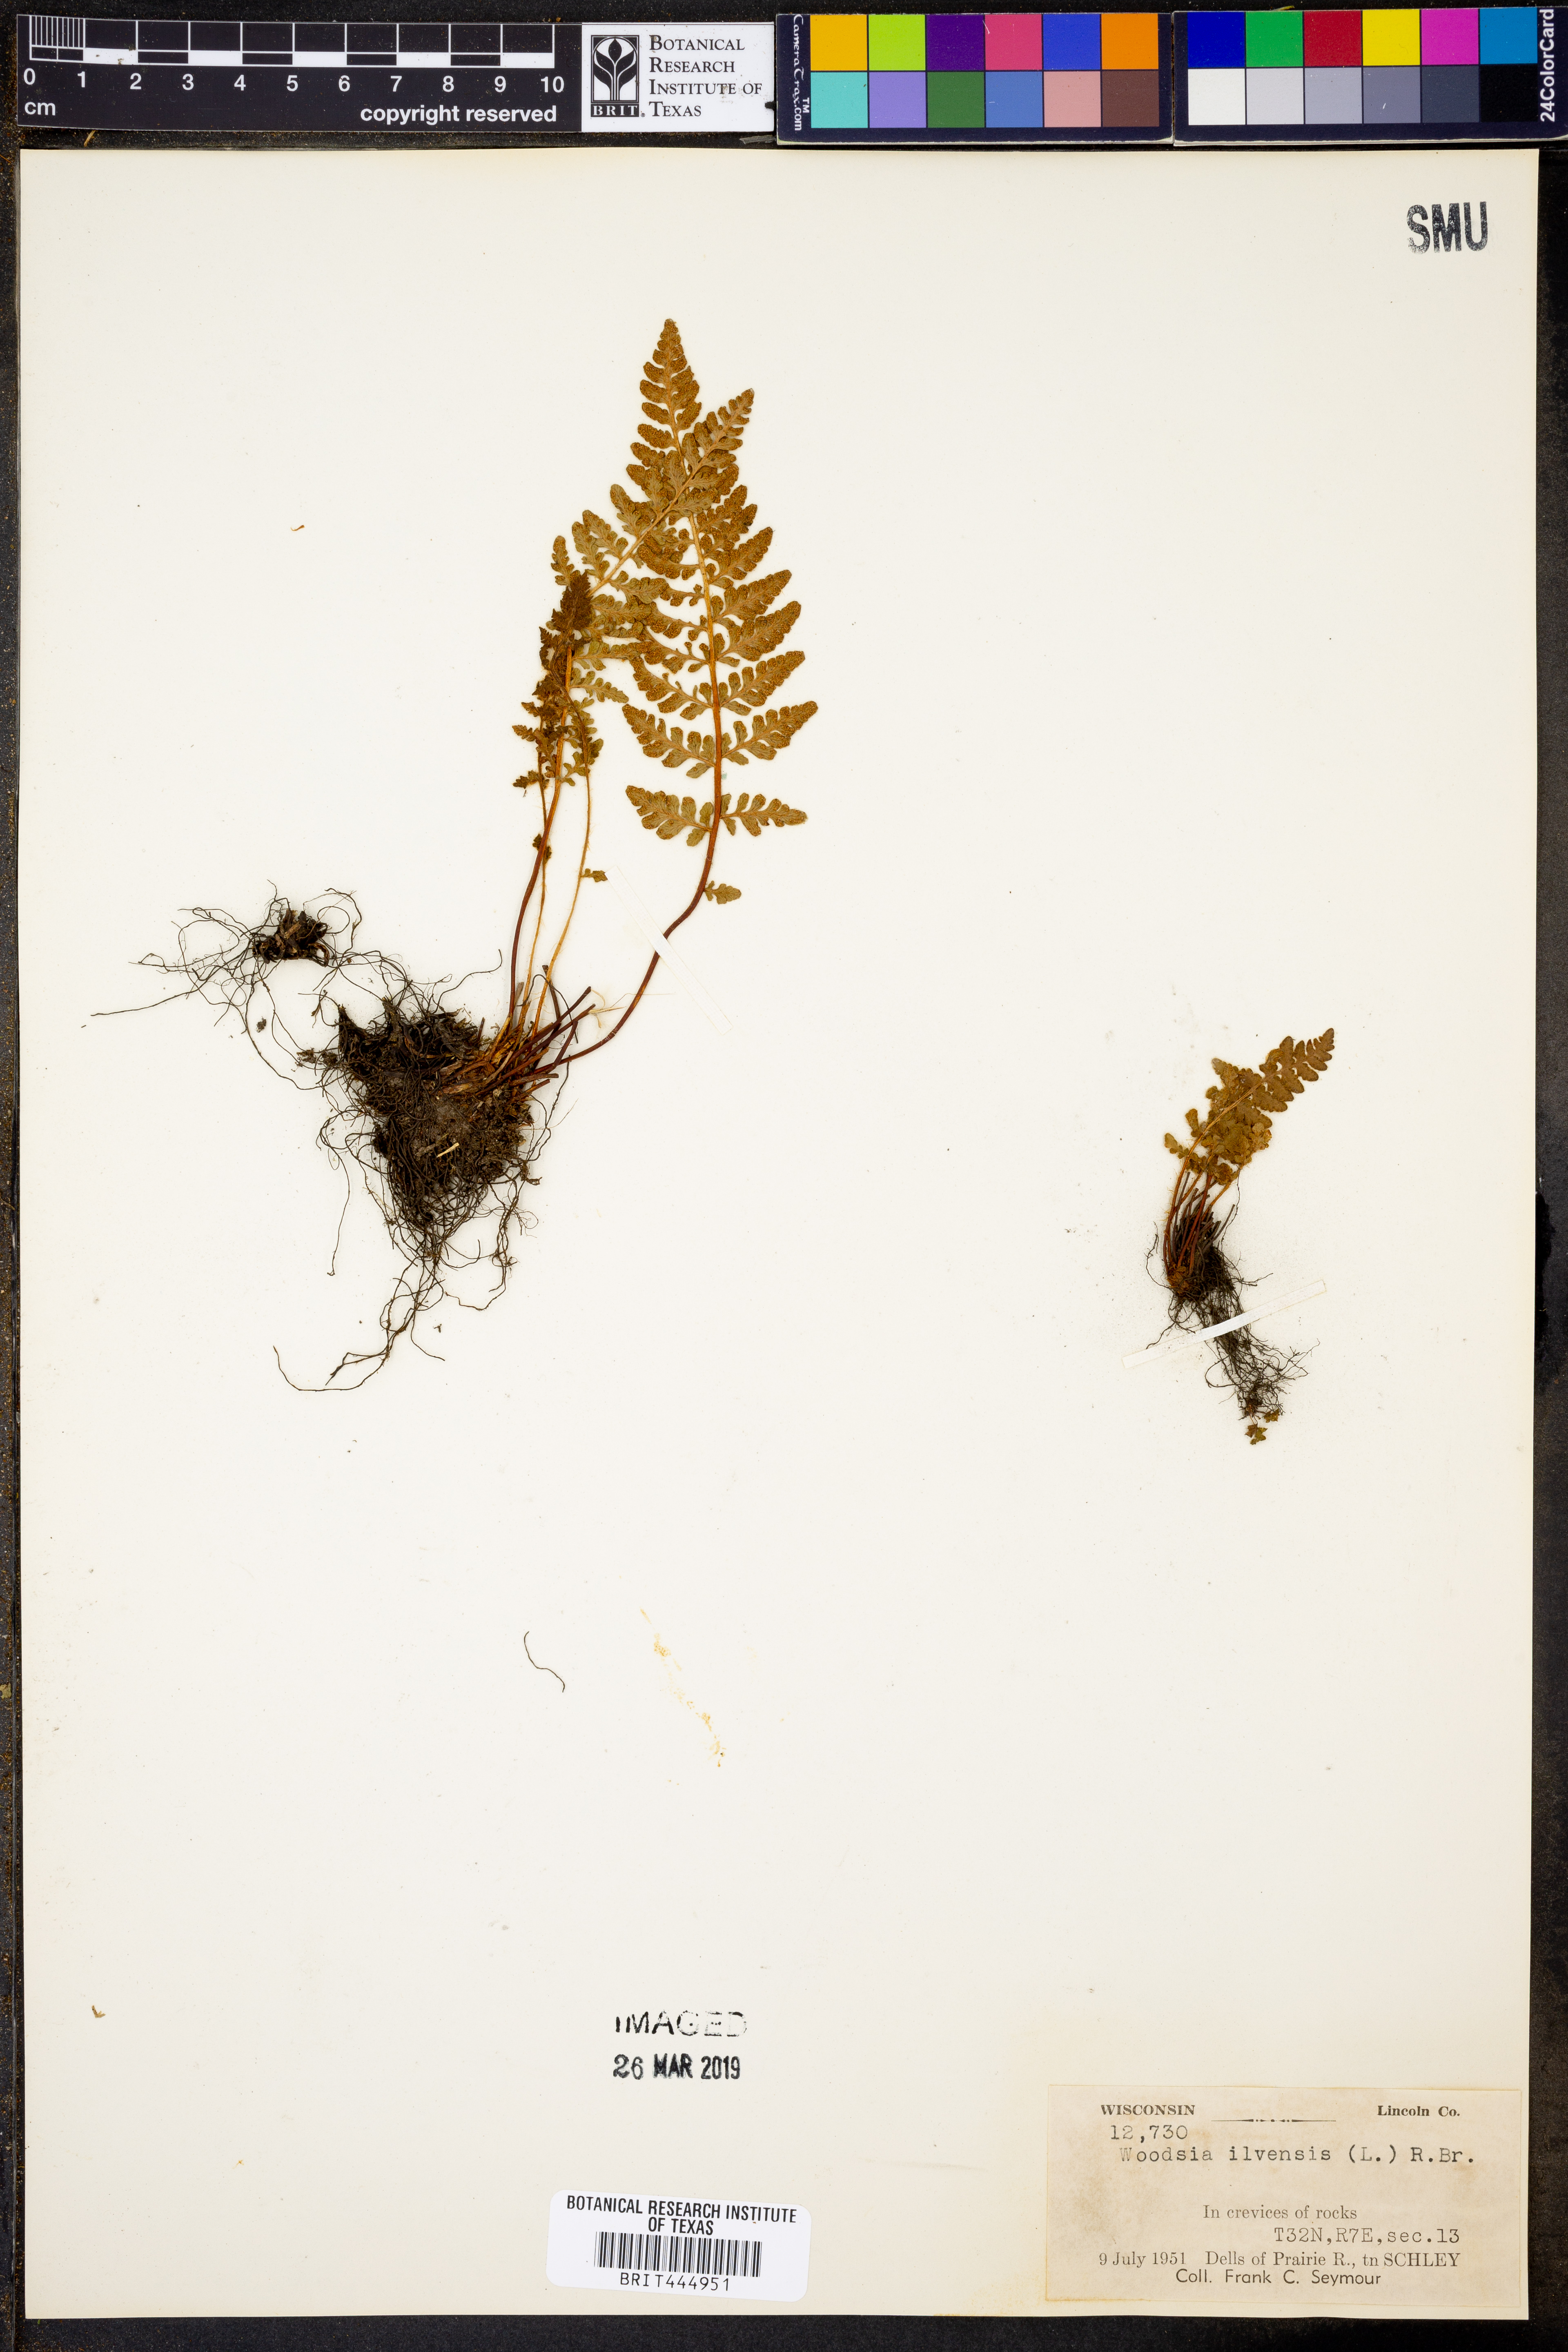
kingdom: Plantae
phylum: Tracheophyta
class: Polypodiopsida
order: Polypodiales
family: Woodsiaceae
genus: Woodsia
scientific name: Woodsia ilvensis
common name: Fragrant woodsia
